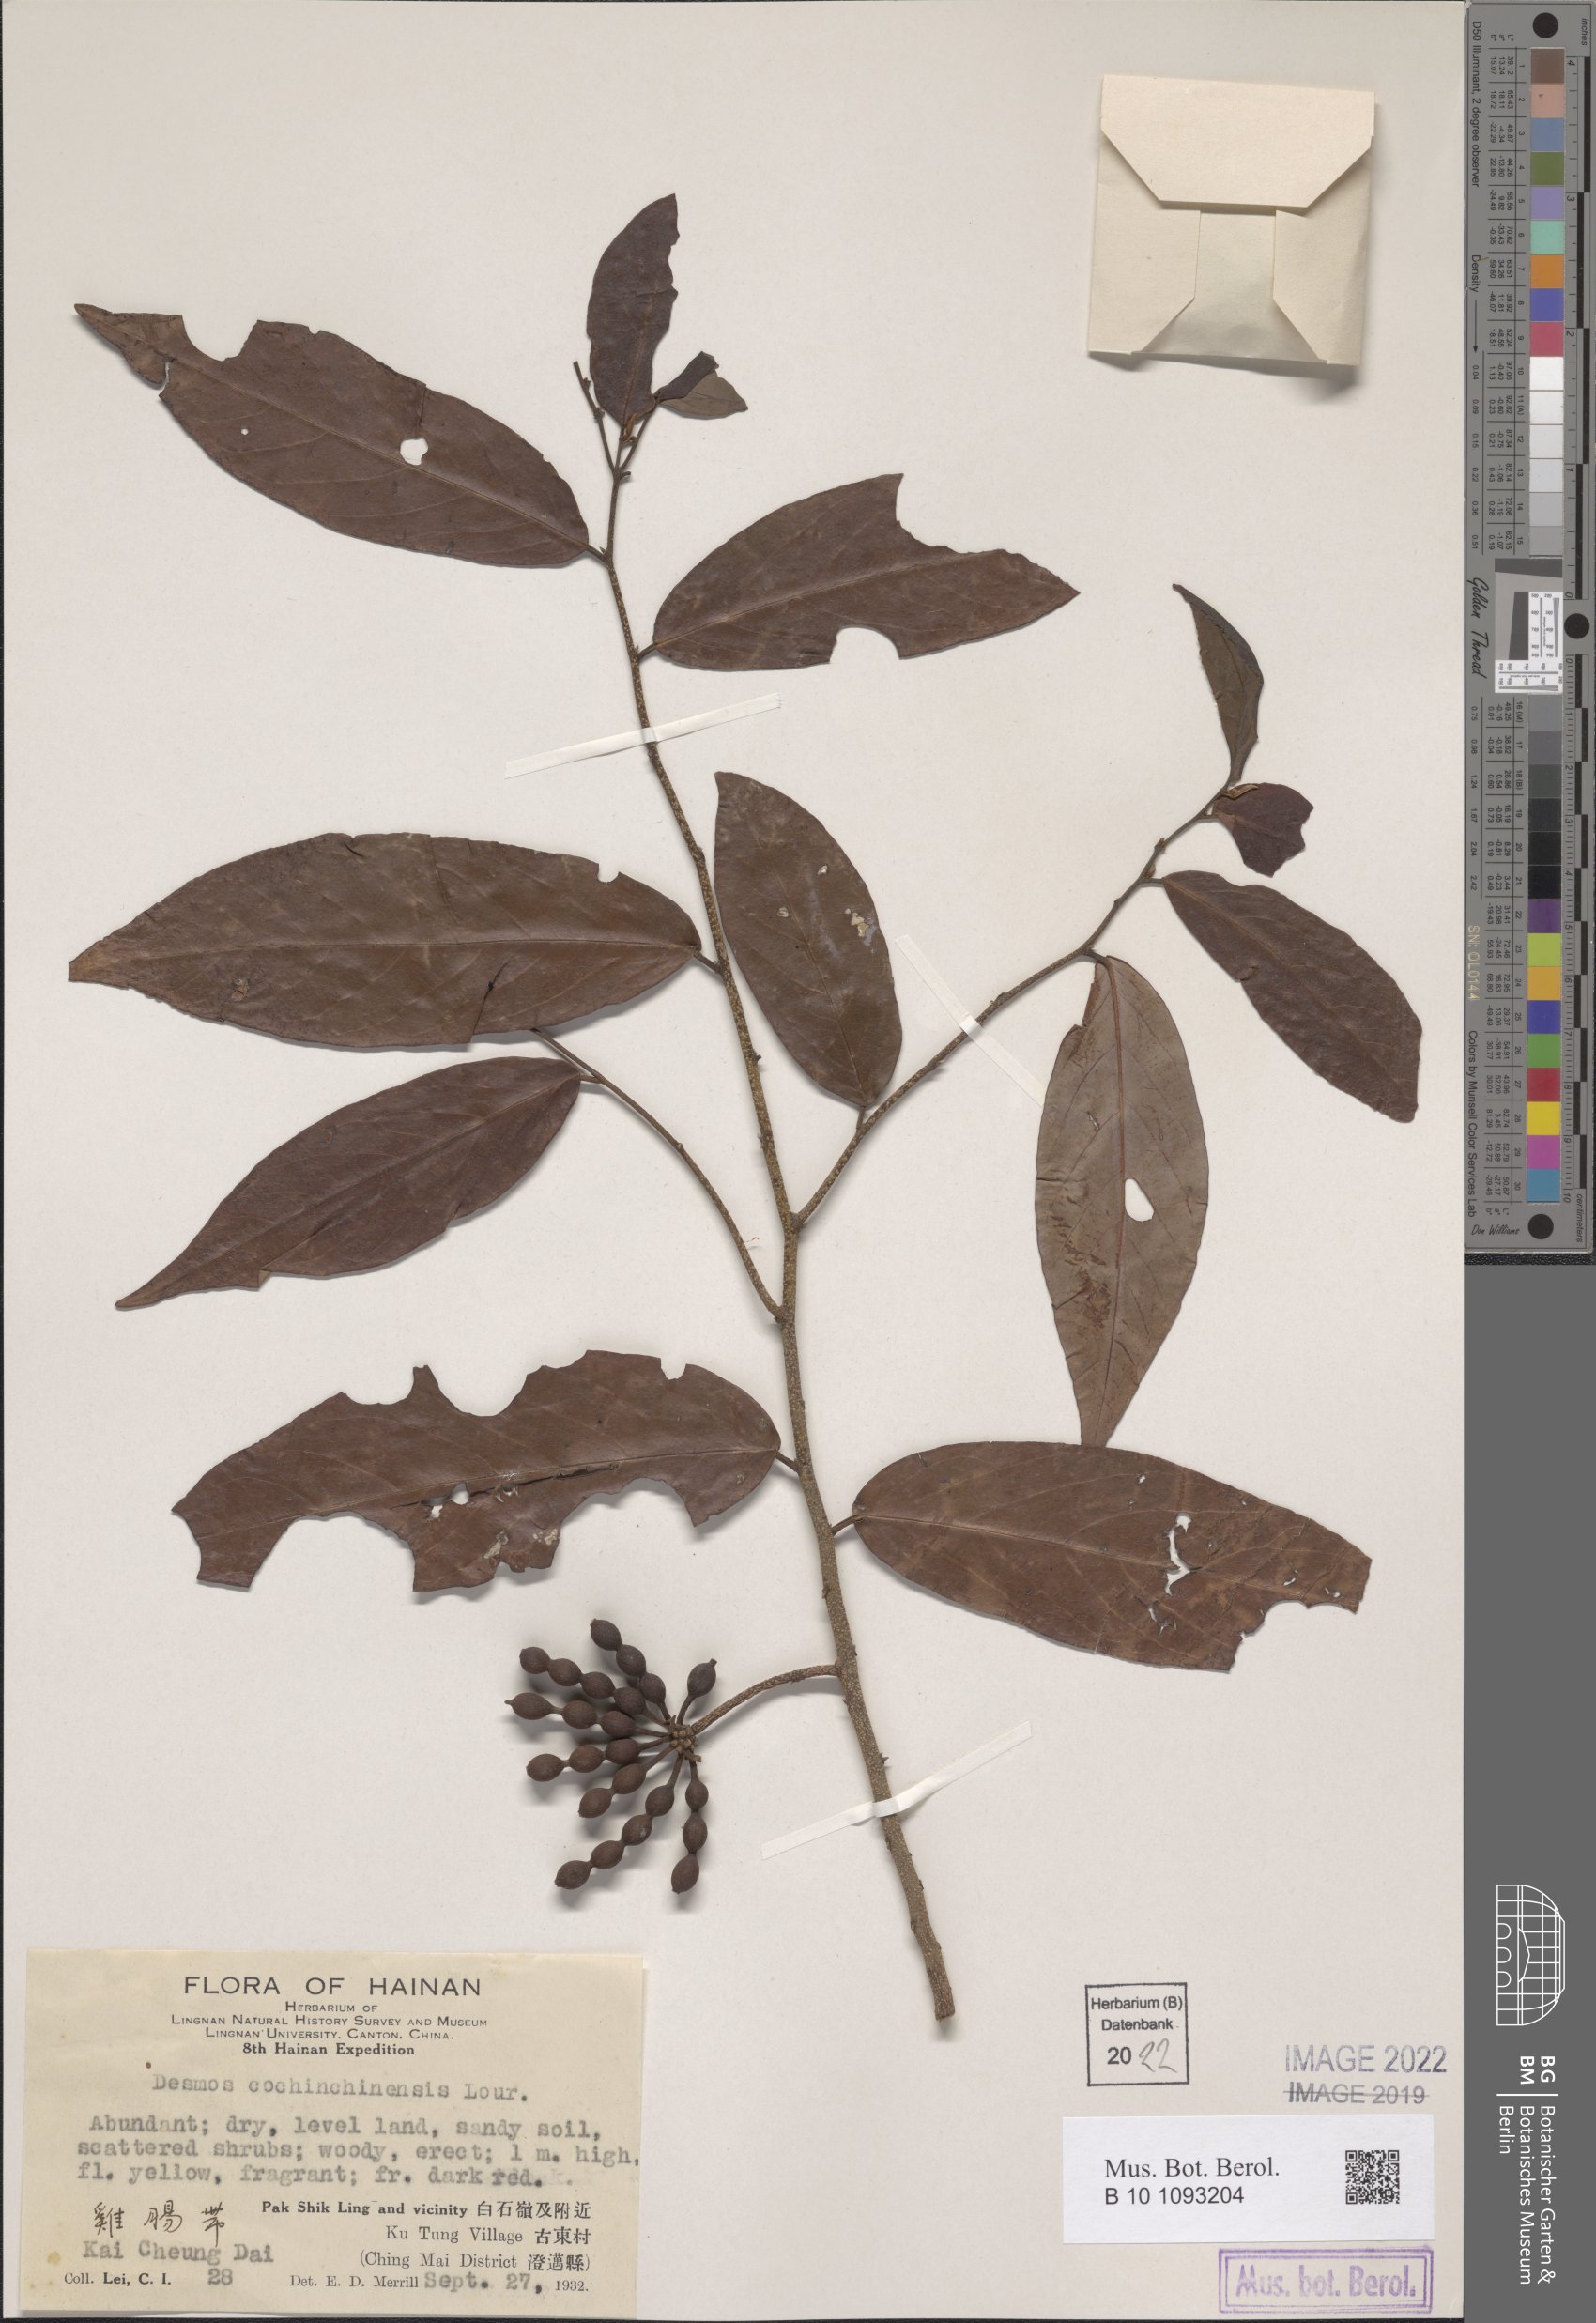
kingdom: Plantae
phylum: Tracheophyta
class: Magnoliopsida
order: Magnoliales
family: Annonaceae
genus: Desmos
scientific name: Desmos cochinchinensis
